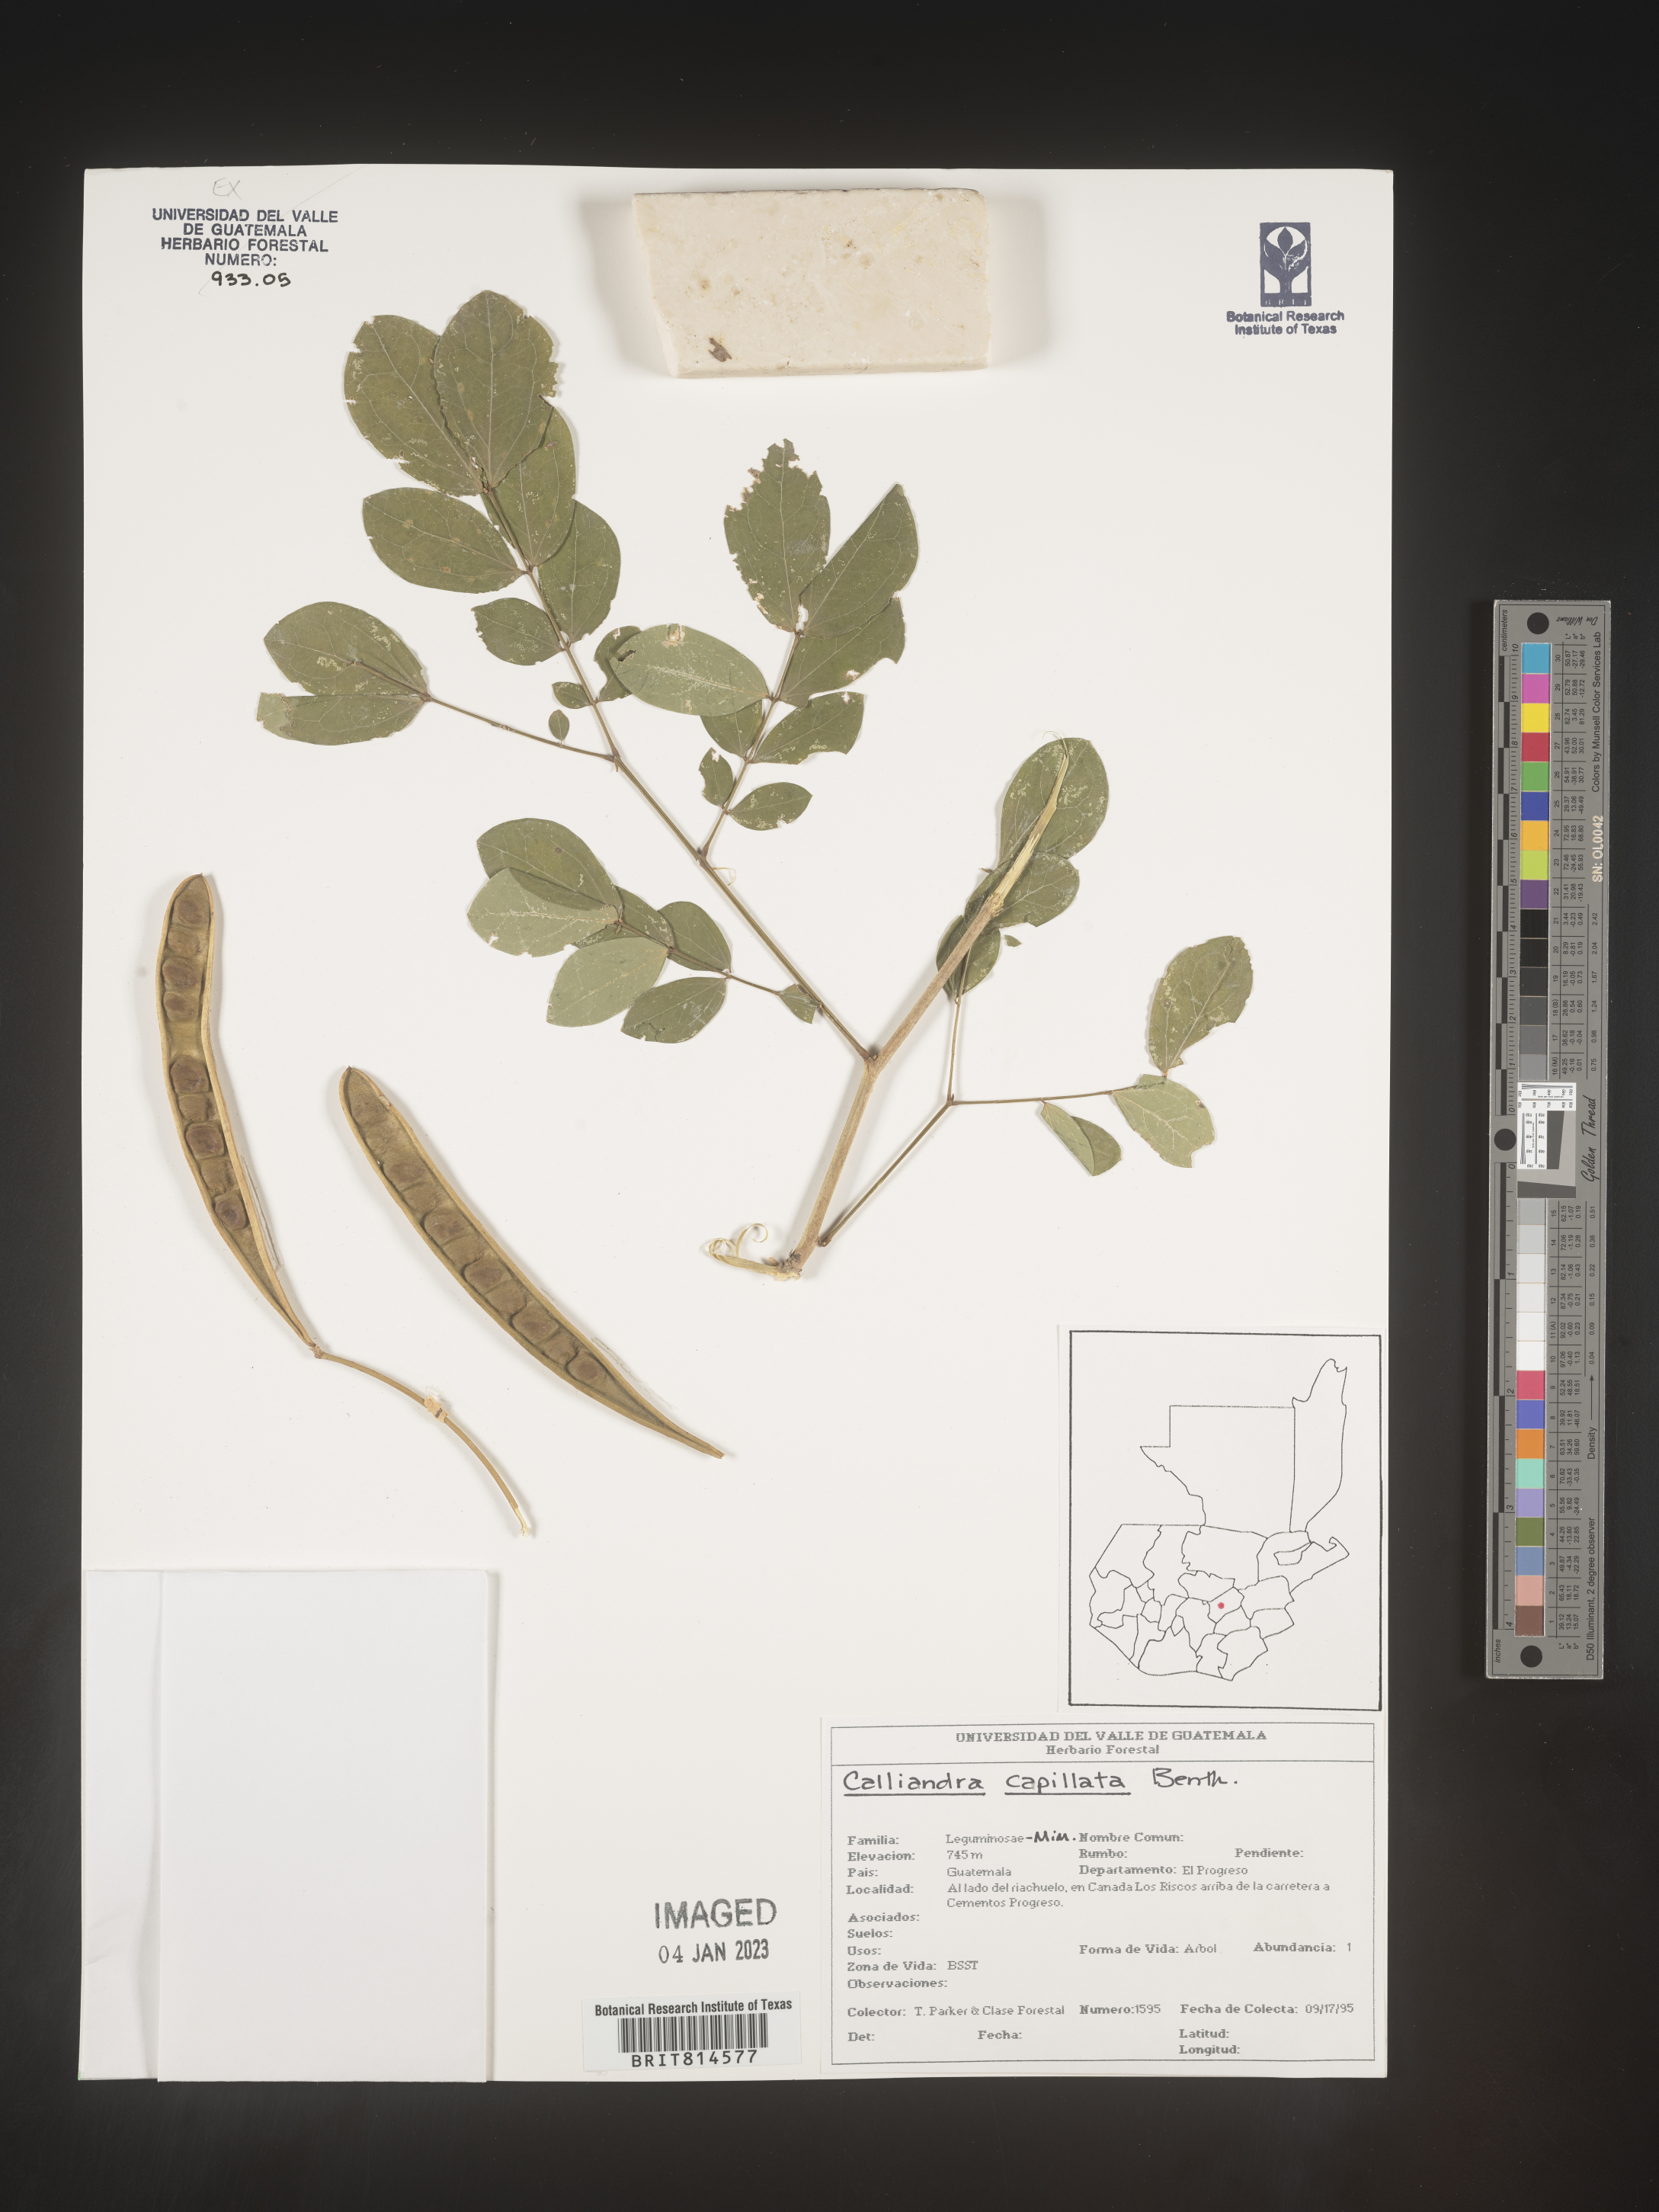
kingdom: Plantae
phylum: Tracheophyta
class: Magnoliopsida
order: Fabales
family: Fabaceae
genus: Calliandra
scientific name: Calliandra
